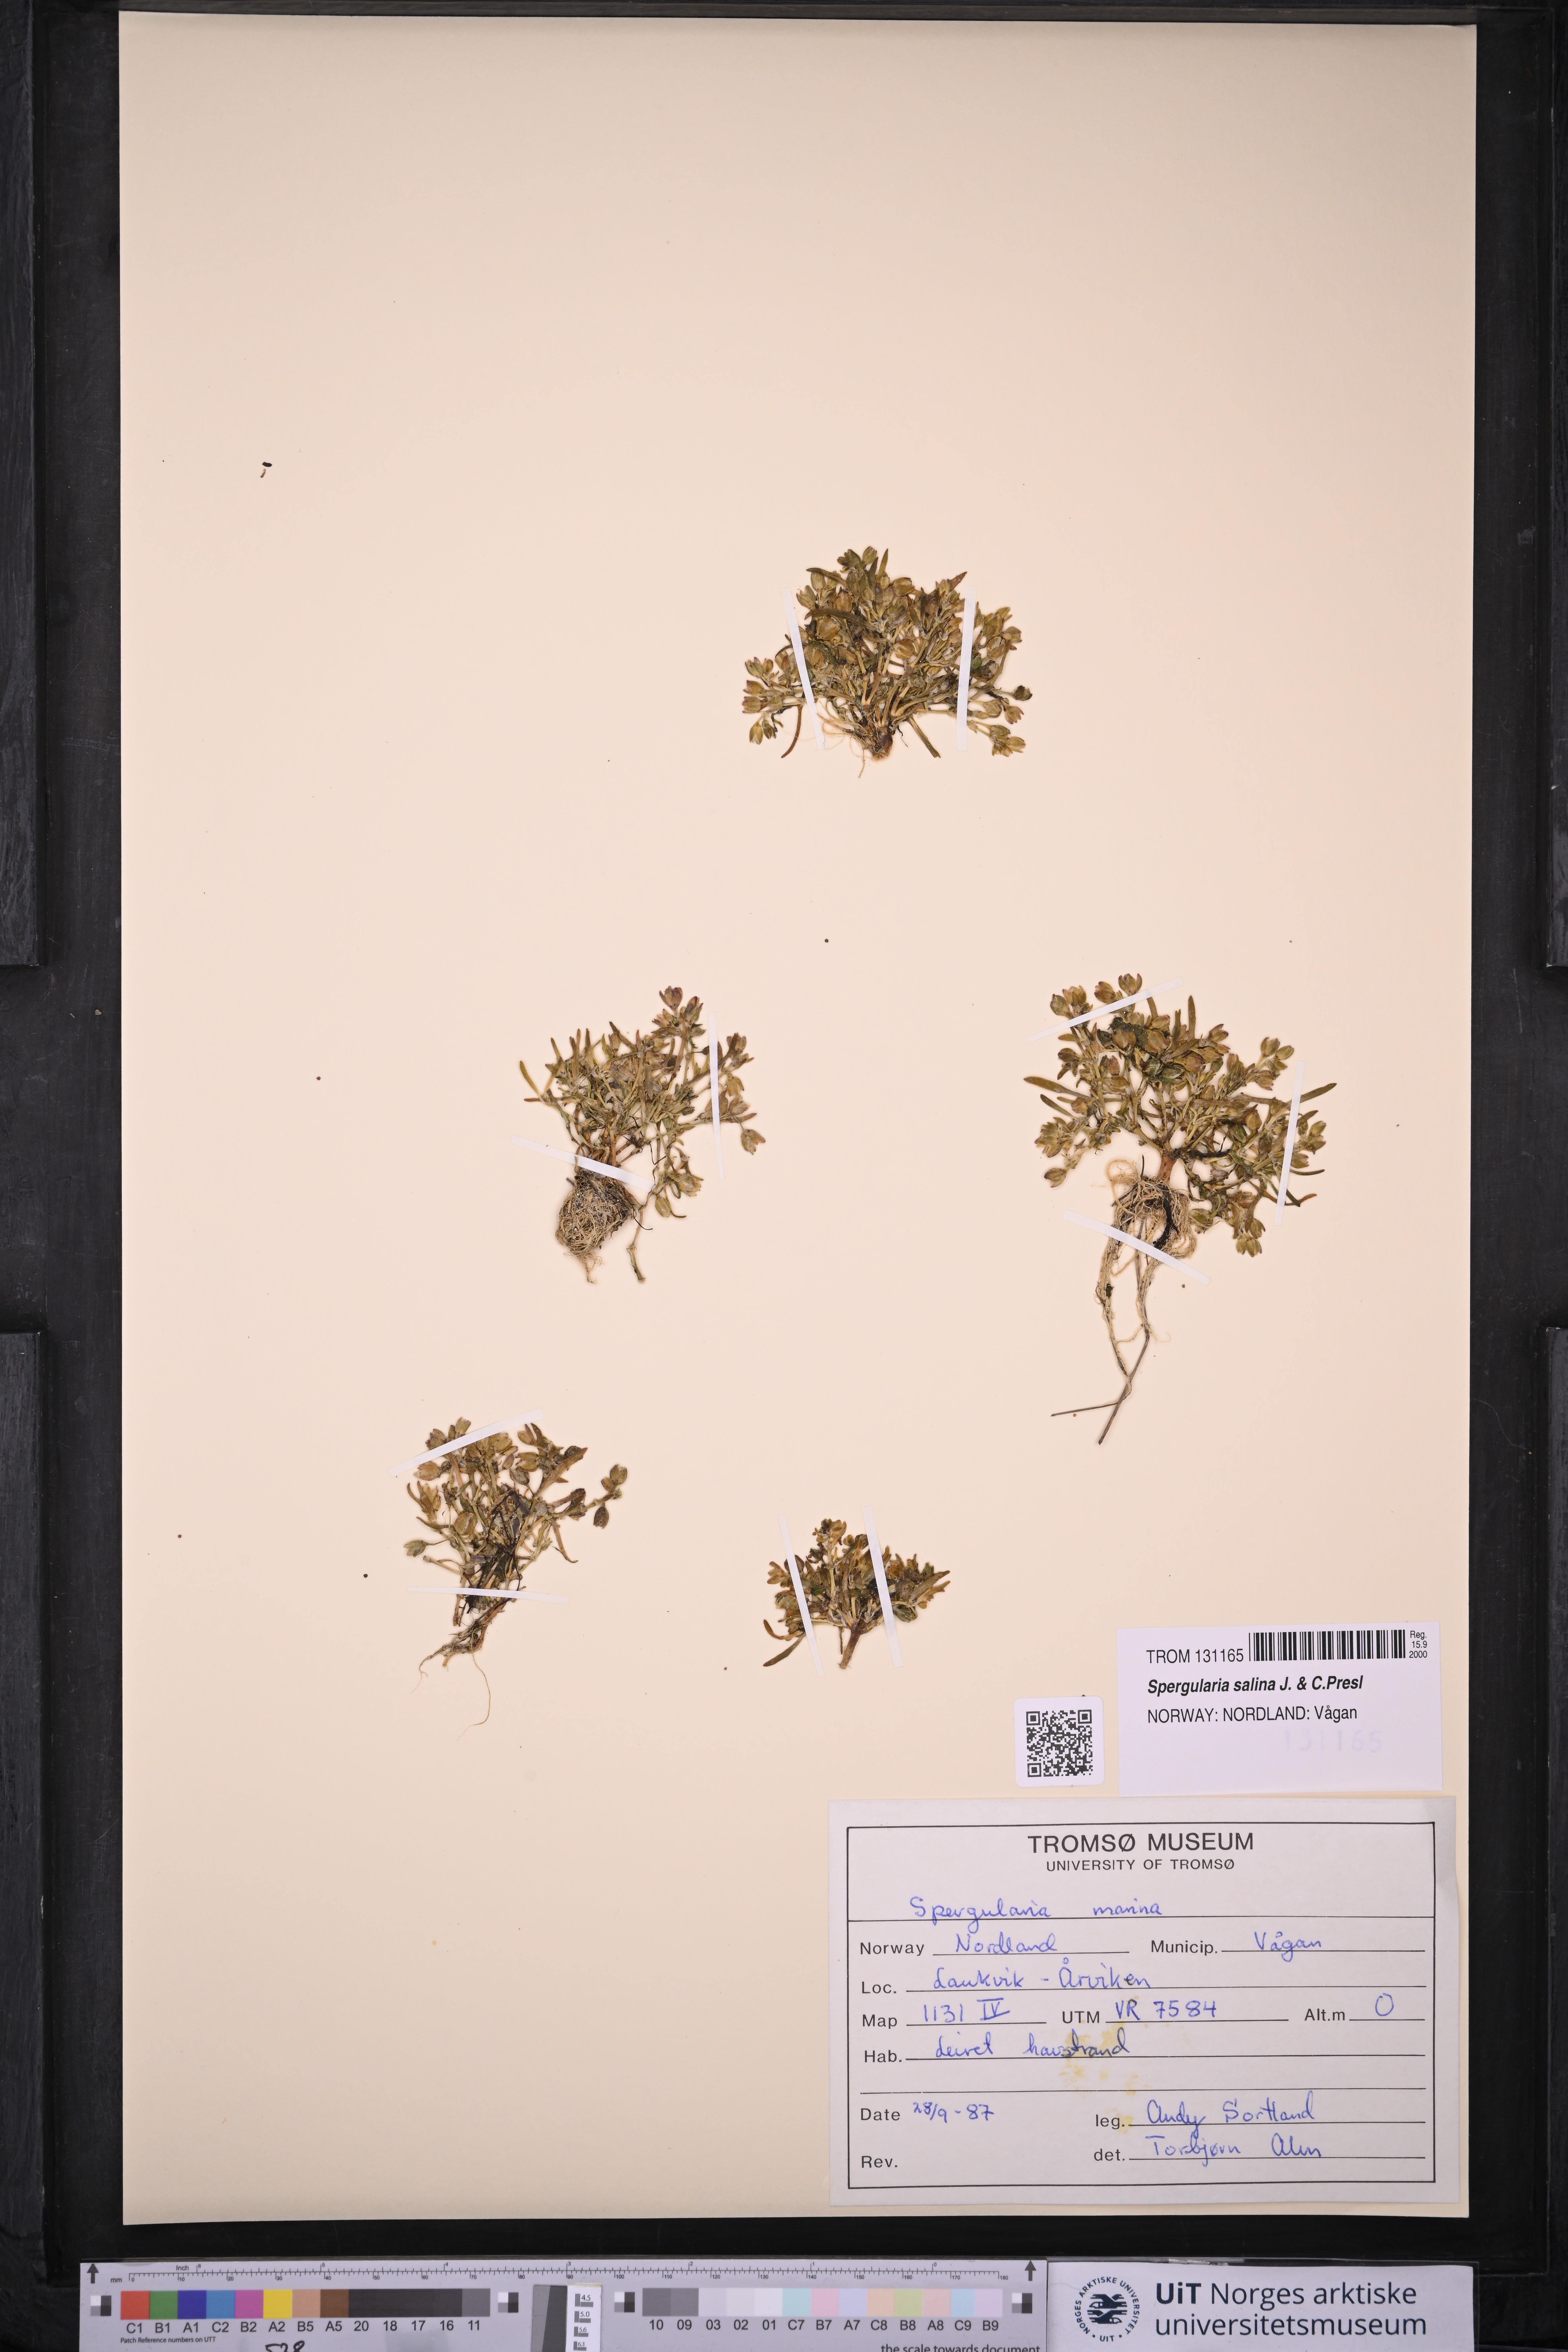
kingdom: Plantae
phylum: Tracheophyta
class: Magnoliopsida
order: Caryophyllales
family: Caryophyllaceae
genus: Spergularia
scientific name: Spergularia marina
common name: Lesser sea-spurrey
